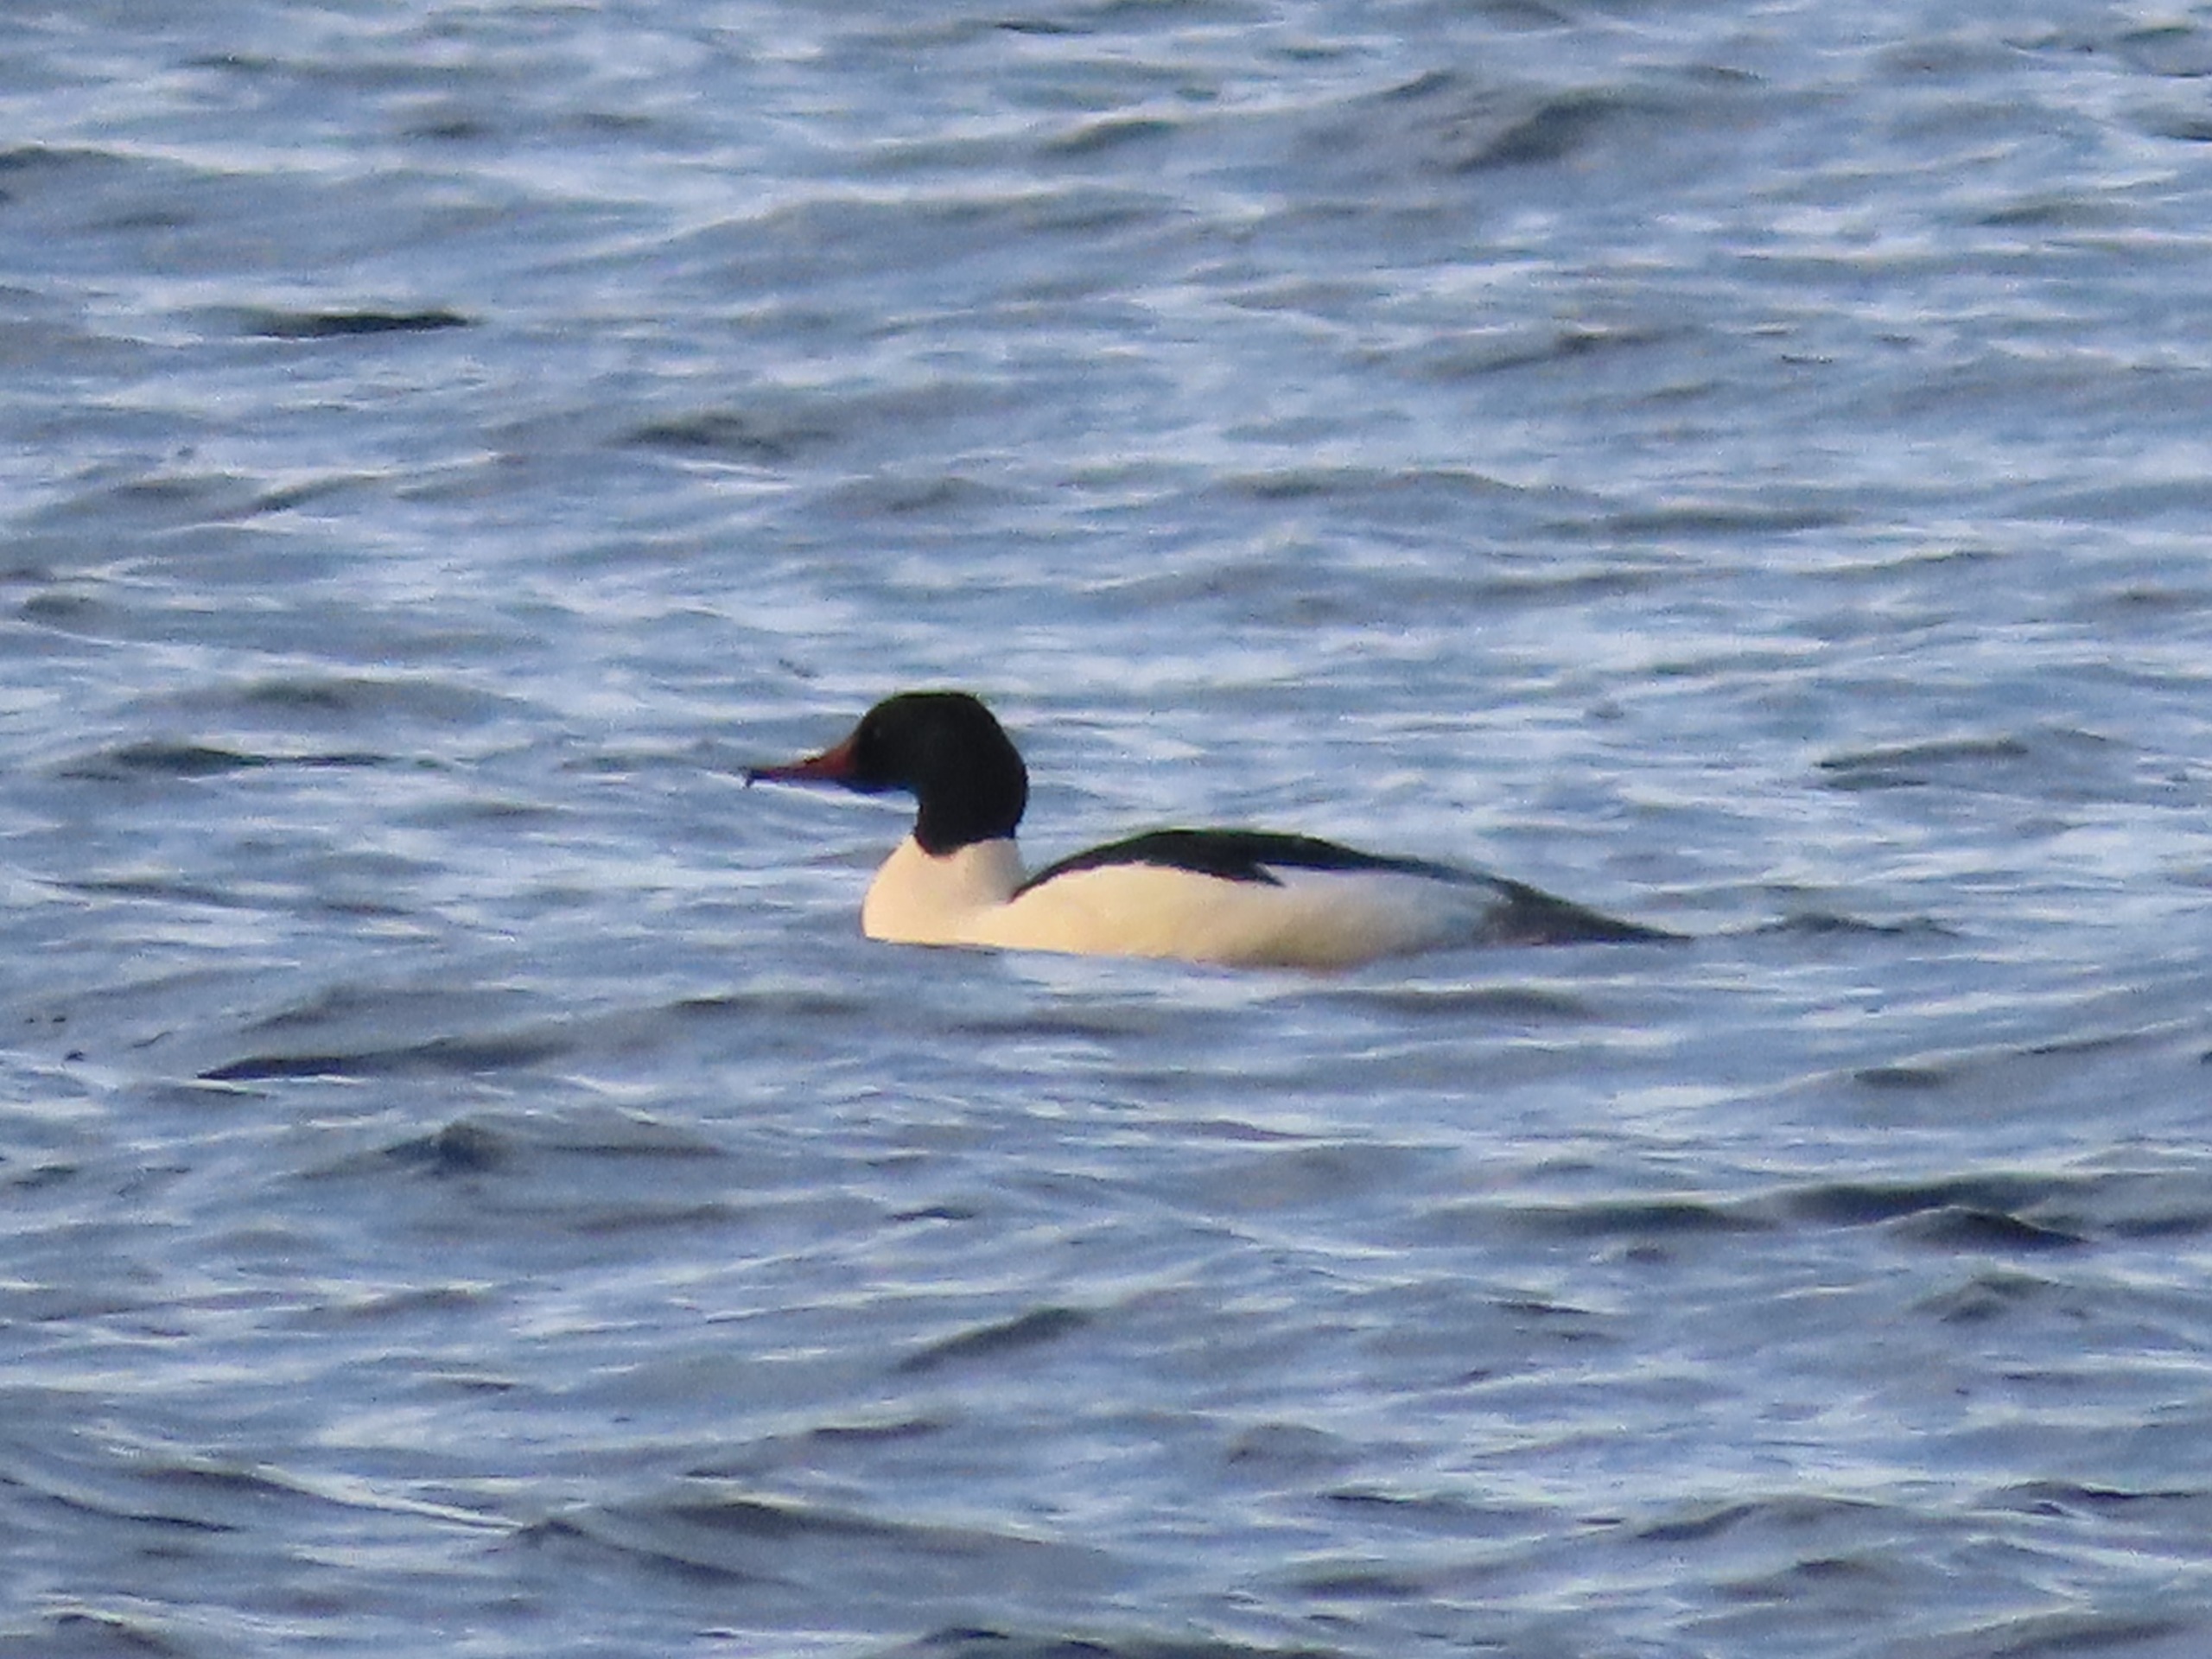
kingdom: Animalia
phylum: Chordata
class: Aves
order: Anseriformes
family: Anatidae
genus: Mergus
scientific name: Mergus merganser
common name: Stor skallesluger
